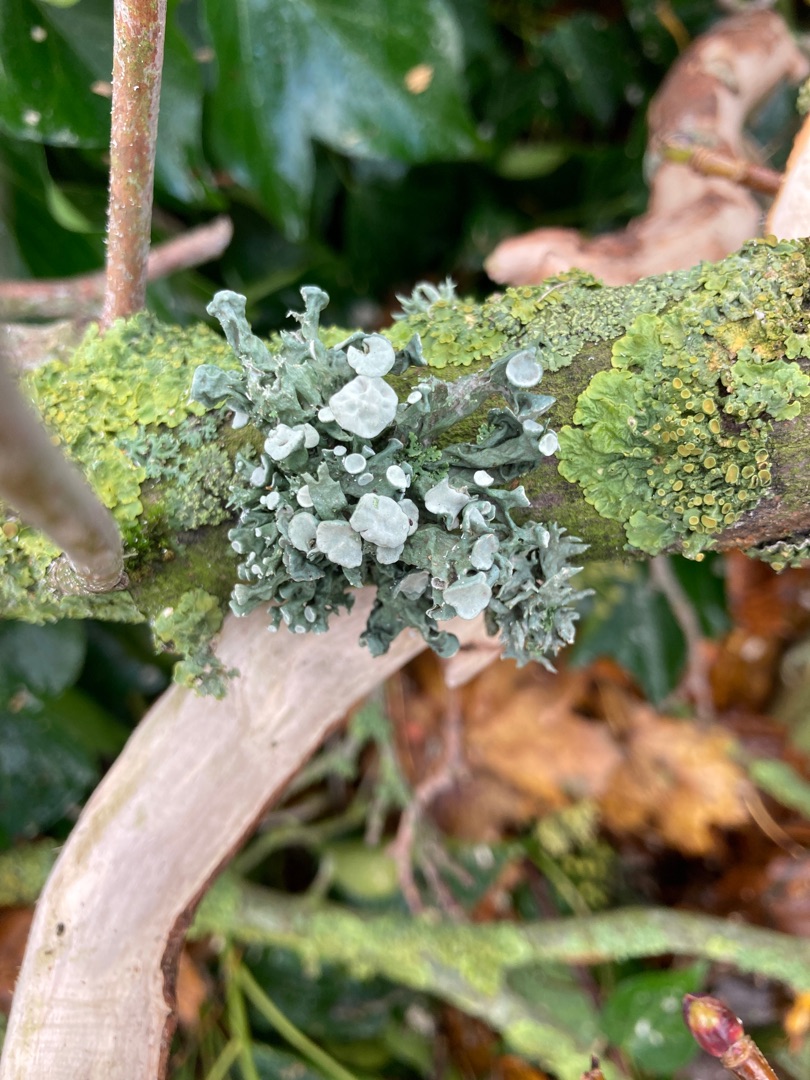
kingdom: Fungi
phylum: Ascomycota
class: Lecanoromycetes
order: Lecanorales
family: Ramalinaceae
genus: Ramalina
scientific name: Ramalina fastigiata
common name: Tue-grenlav
